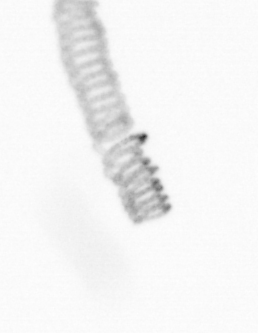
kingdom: Chromista
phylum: Ochrophyta
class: Bacillariophyceae
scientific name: Bacillariophyceae
